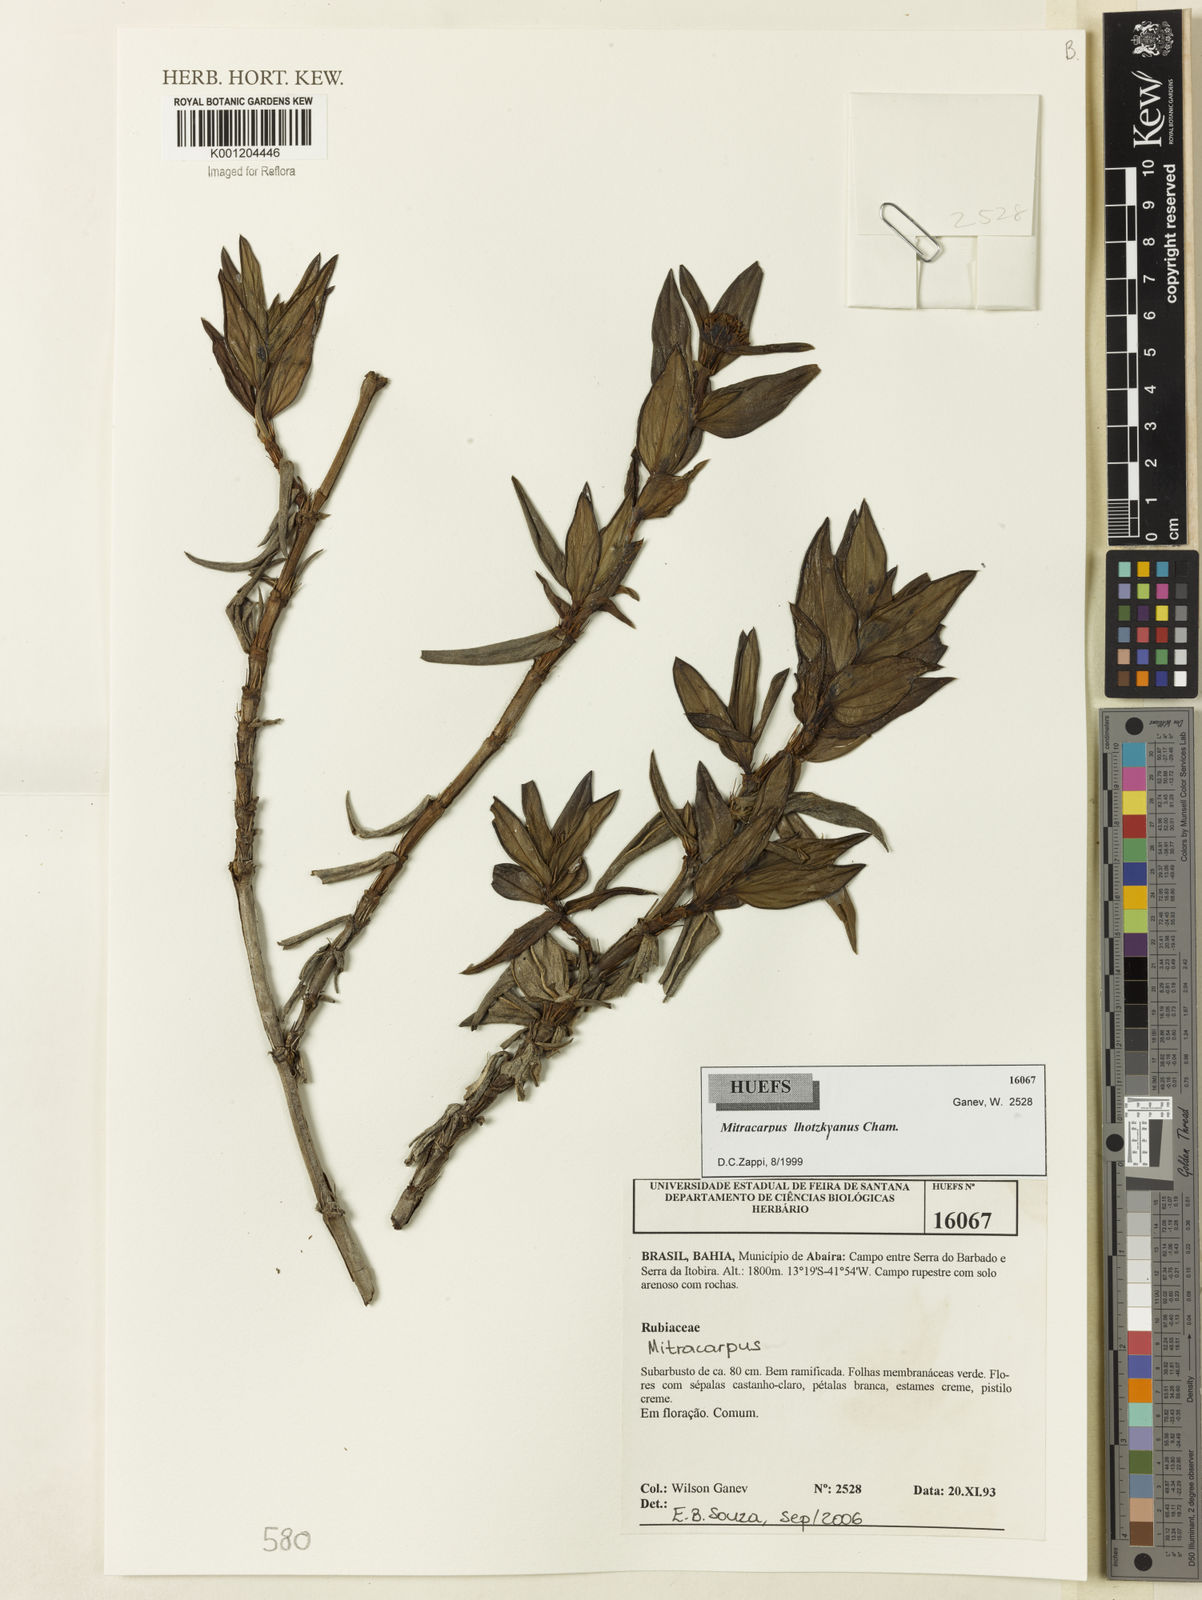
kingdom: Plantae
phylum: Tracheophyta
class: Magnoliopsida
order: Gentianales
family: Rubiaceae
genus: Mitracarpus
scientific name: Mitracarpus lhotzkyanus
